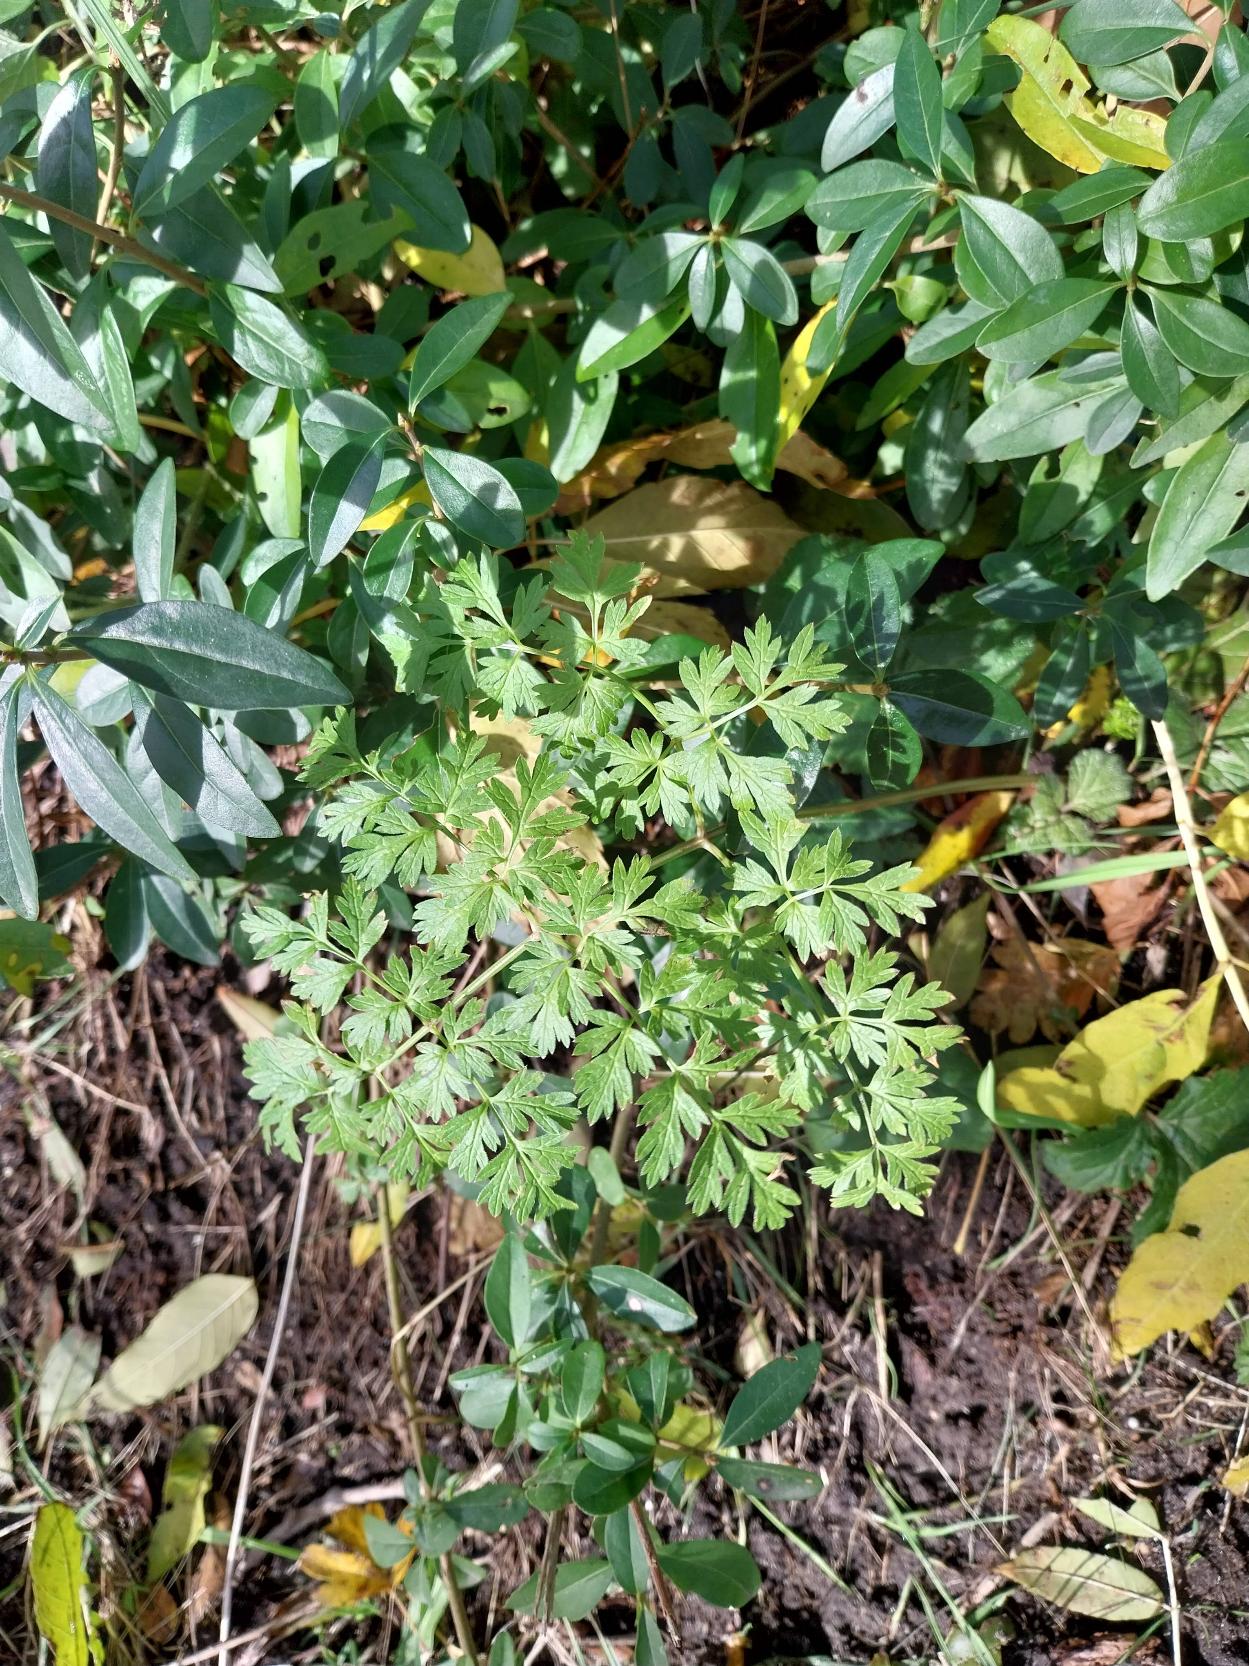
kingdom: Plantae
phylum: Tracheophyta
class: Magnoliopsida
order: Apiales
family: Apiaceae
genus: Anthriscus
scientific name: Anthriscus sylvestris
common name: Vild kørvel
